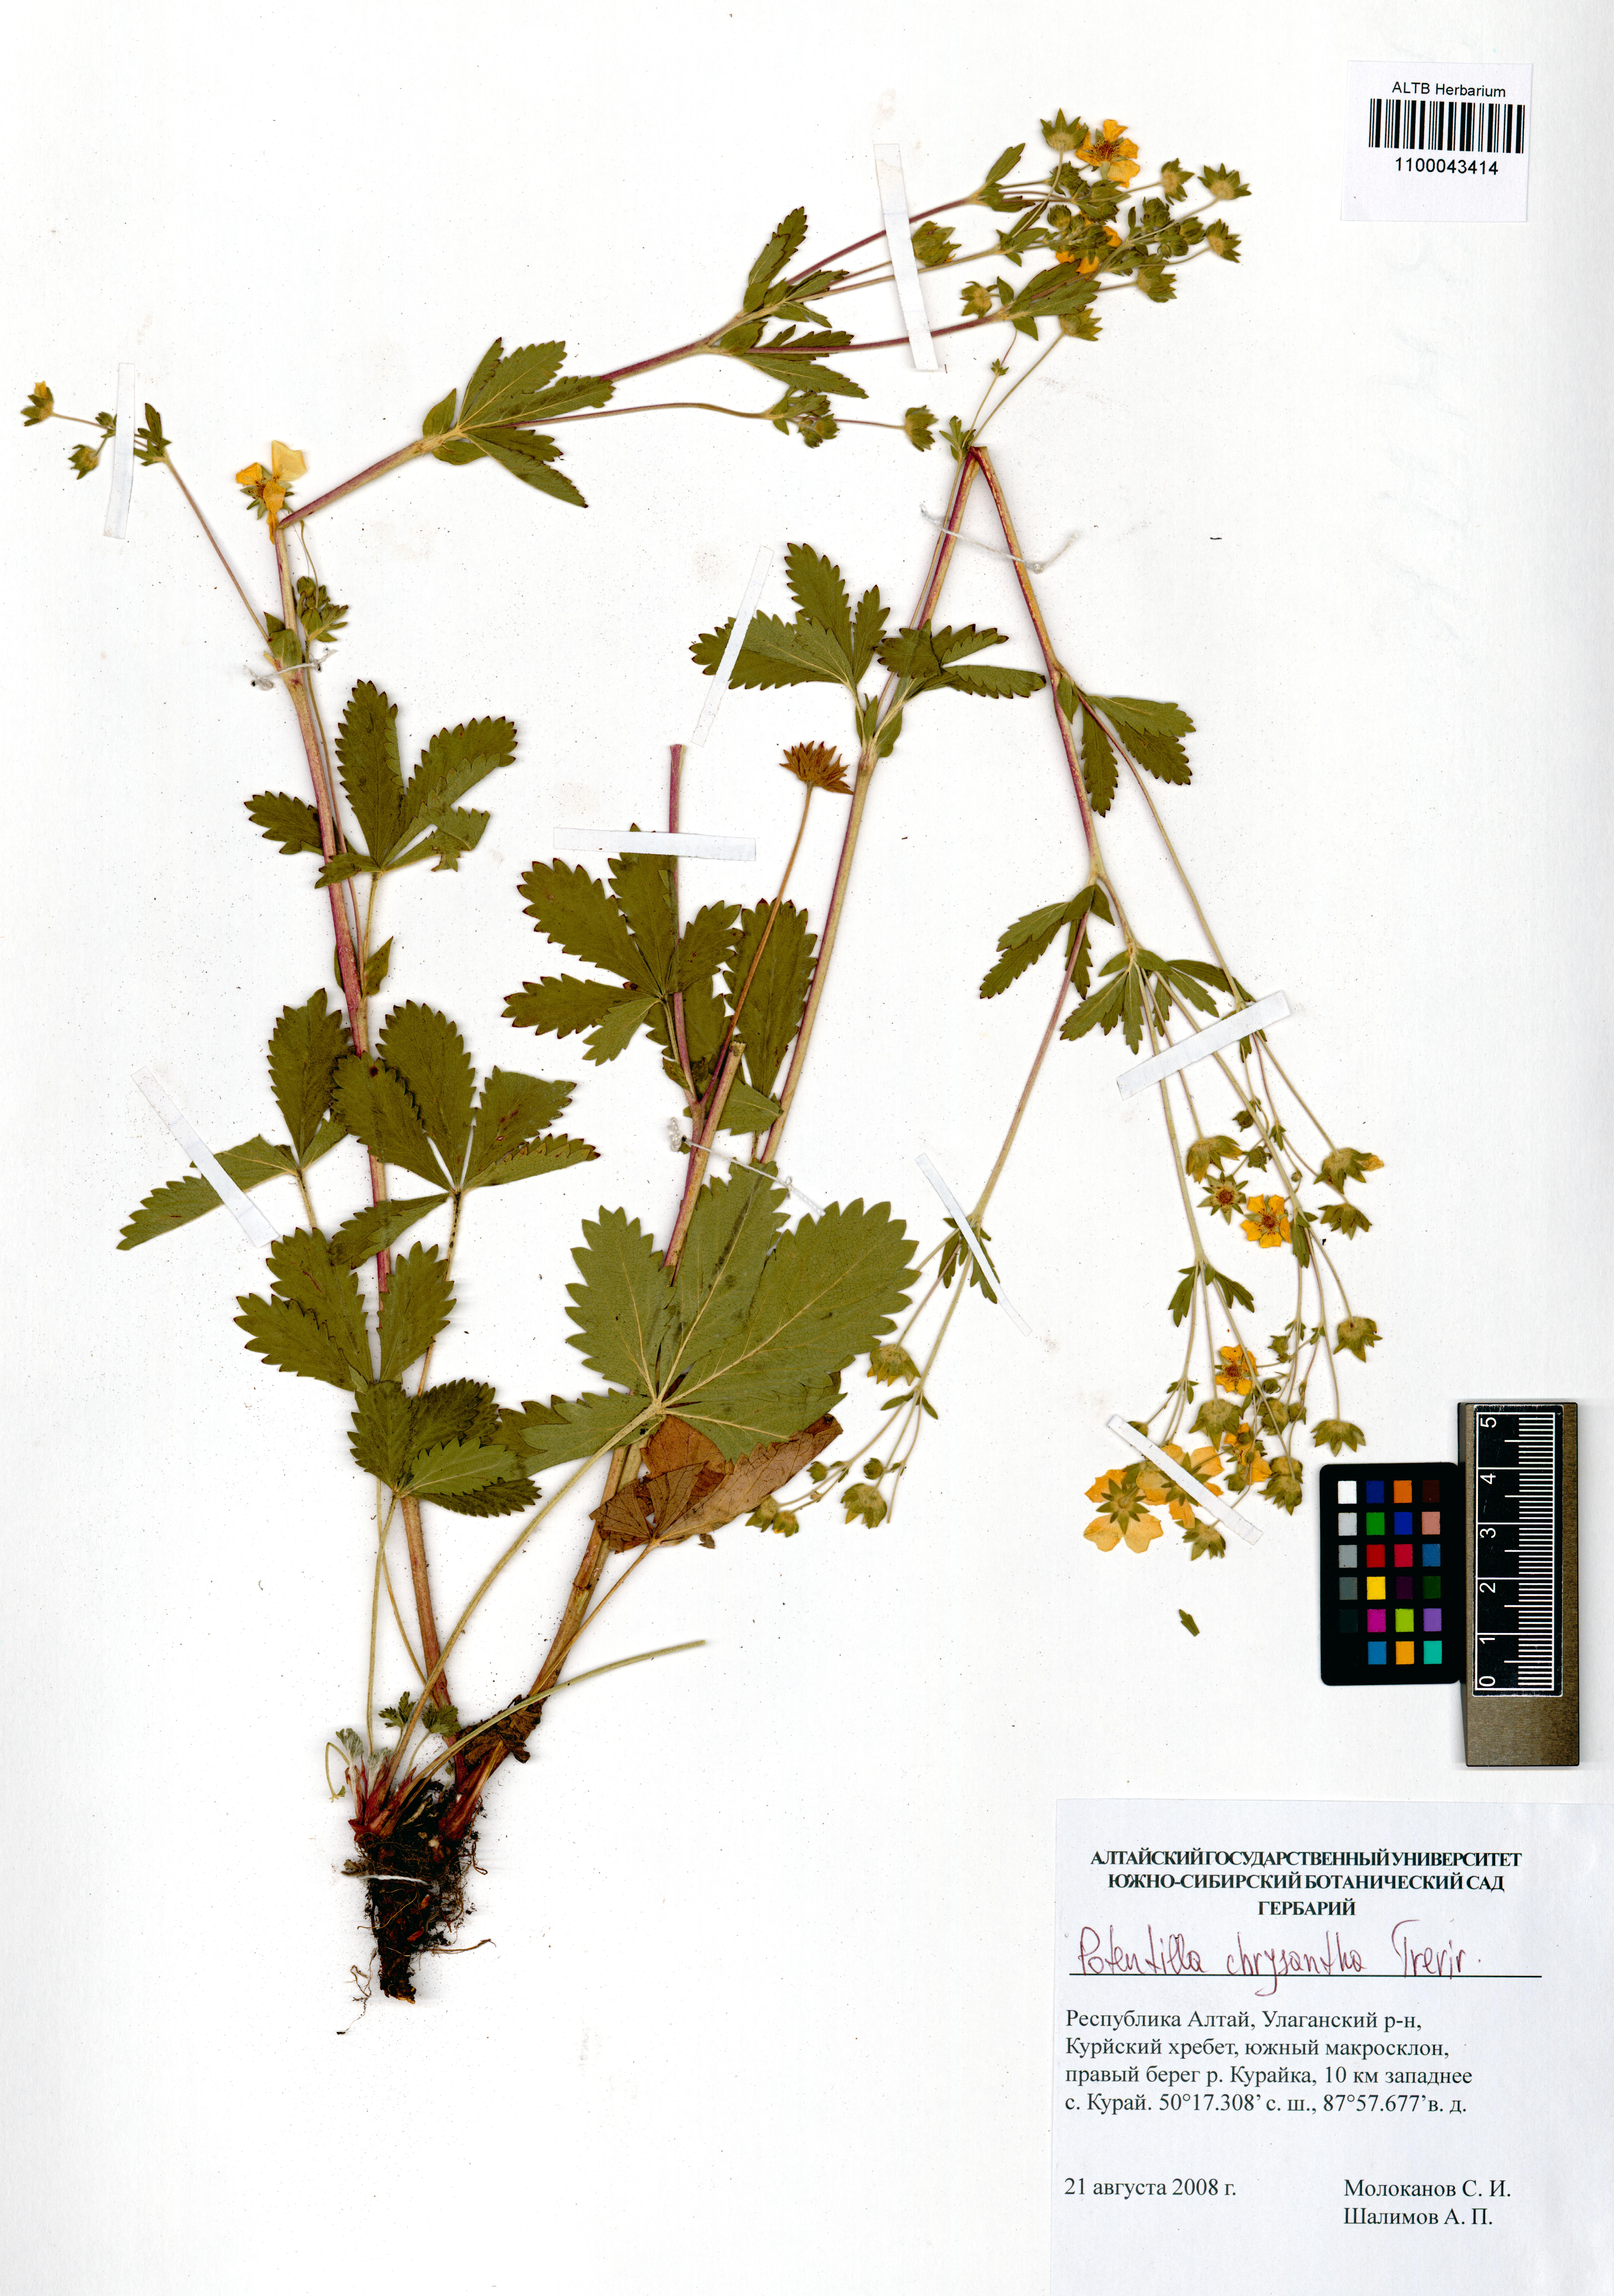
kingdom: Plantae
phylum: Tracheophyta
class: Magnoliopsida
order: Rosales
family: Rosaceae
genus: Potentilla
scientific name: Potentilla chrysantha
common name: Thuringian cinquefoil
